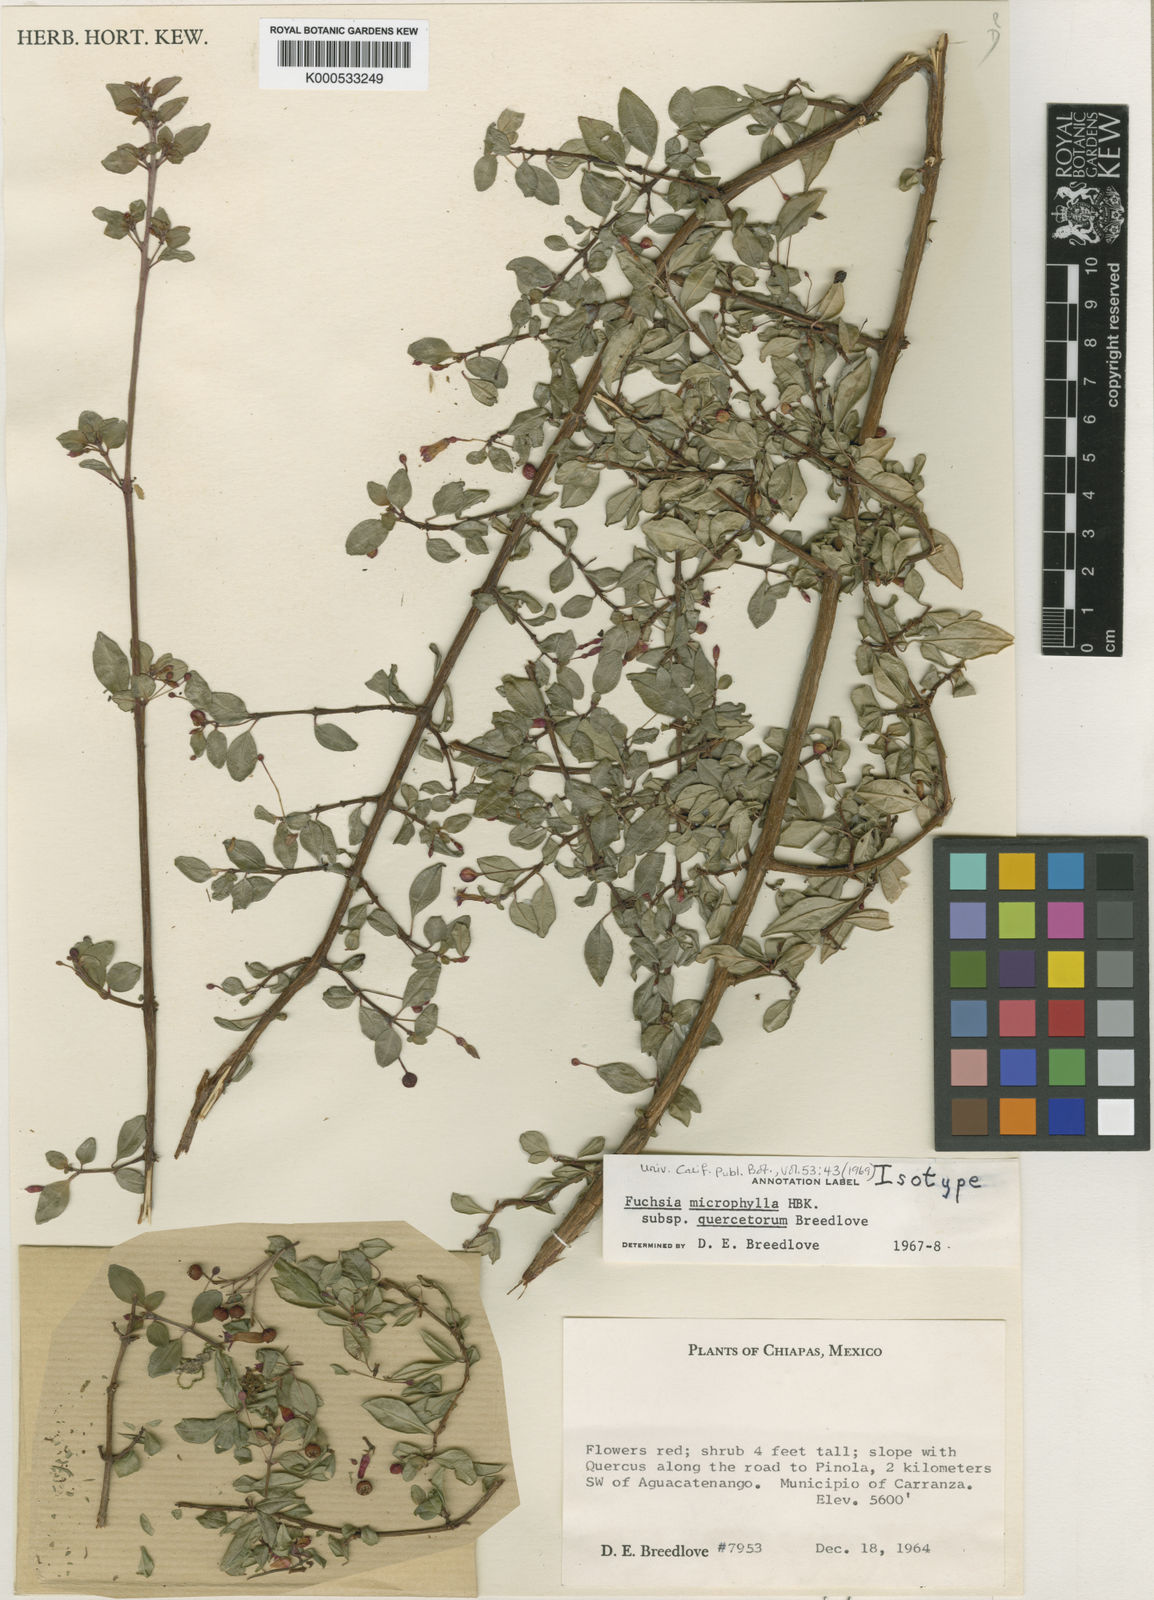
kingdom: Plantae
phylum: Tracheophyta
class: Magnoliopsida
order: Myrtales
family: Onagraceae
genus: Fuchsia
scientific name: Fuchsia microphylla
